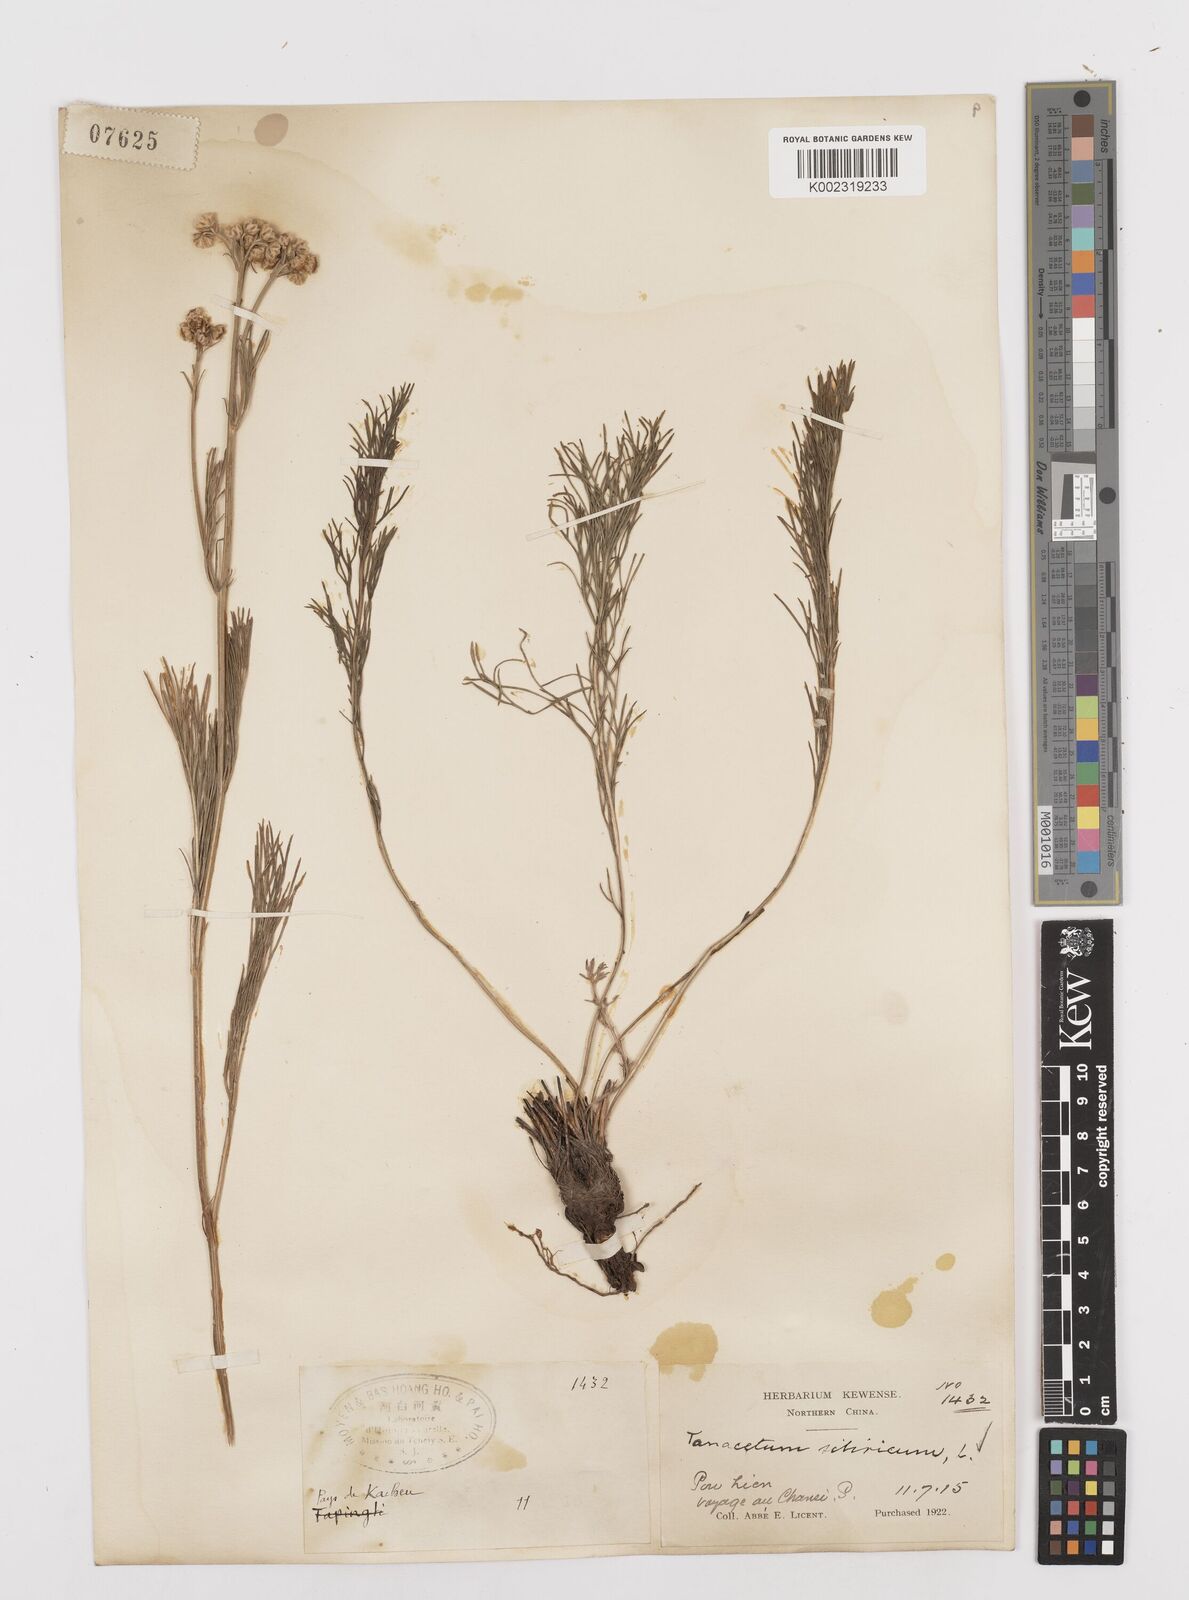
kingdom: Plantae
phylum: Tracheophyta
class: Magnoliopsida
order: Asterales
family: Asteraceae
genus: Filifolium
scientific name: Filifolium sibiricum
